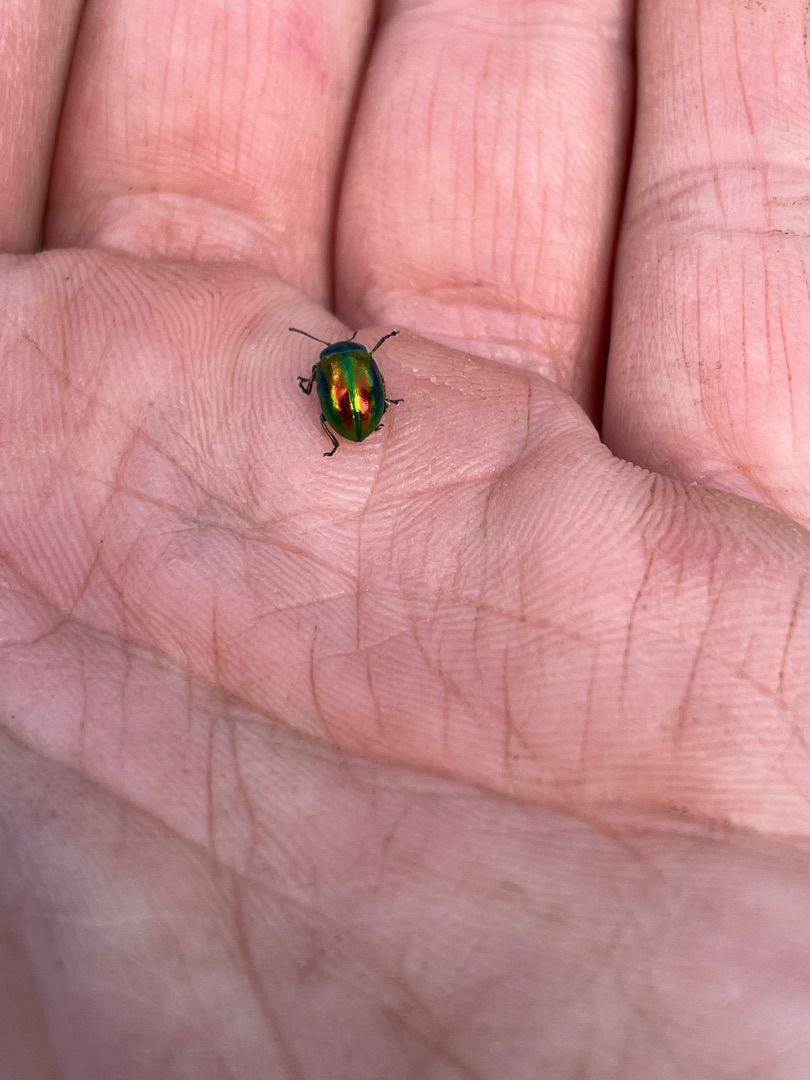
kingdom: Animalia
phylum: Arthropoda
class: Insecta
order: Coleoptera
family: Chrysomelidae
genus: Chrysolina
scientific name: Chrysolina fastuosa
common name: Tvetandbladbille
